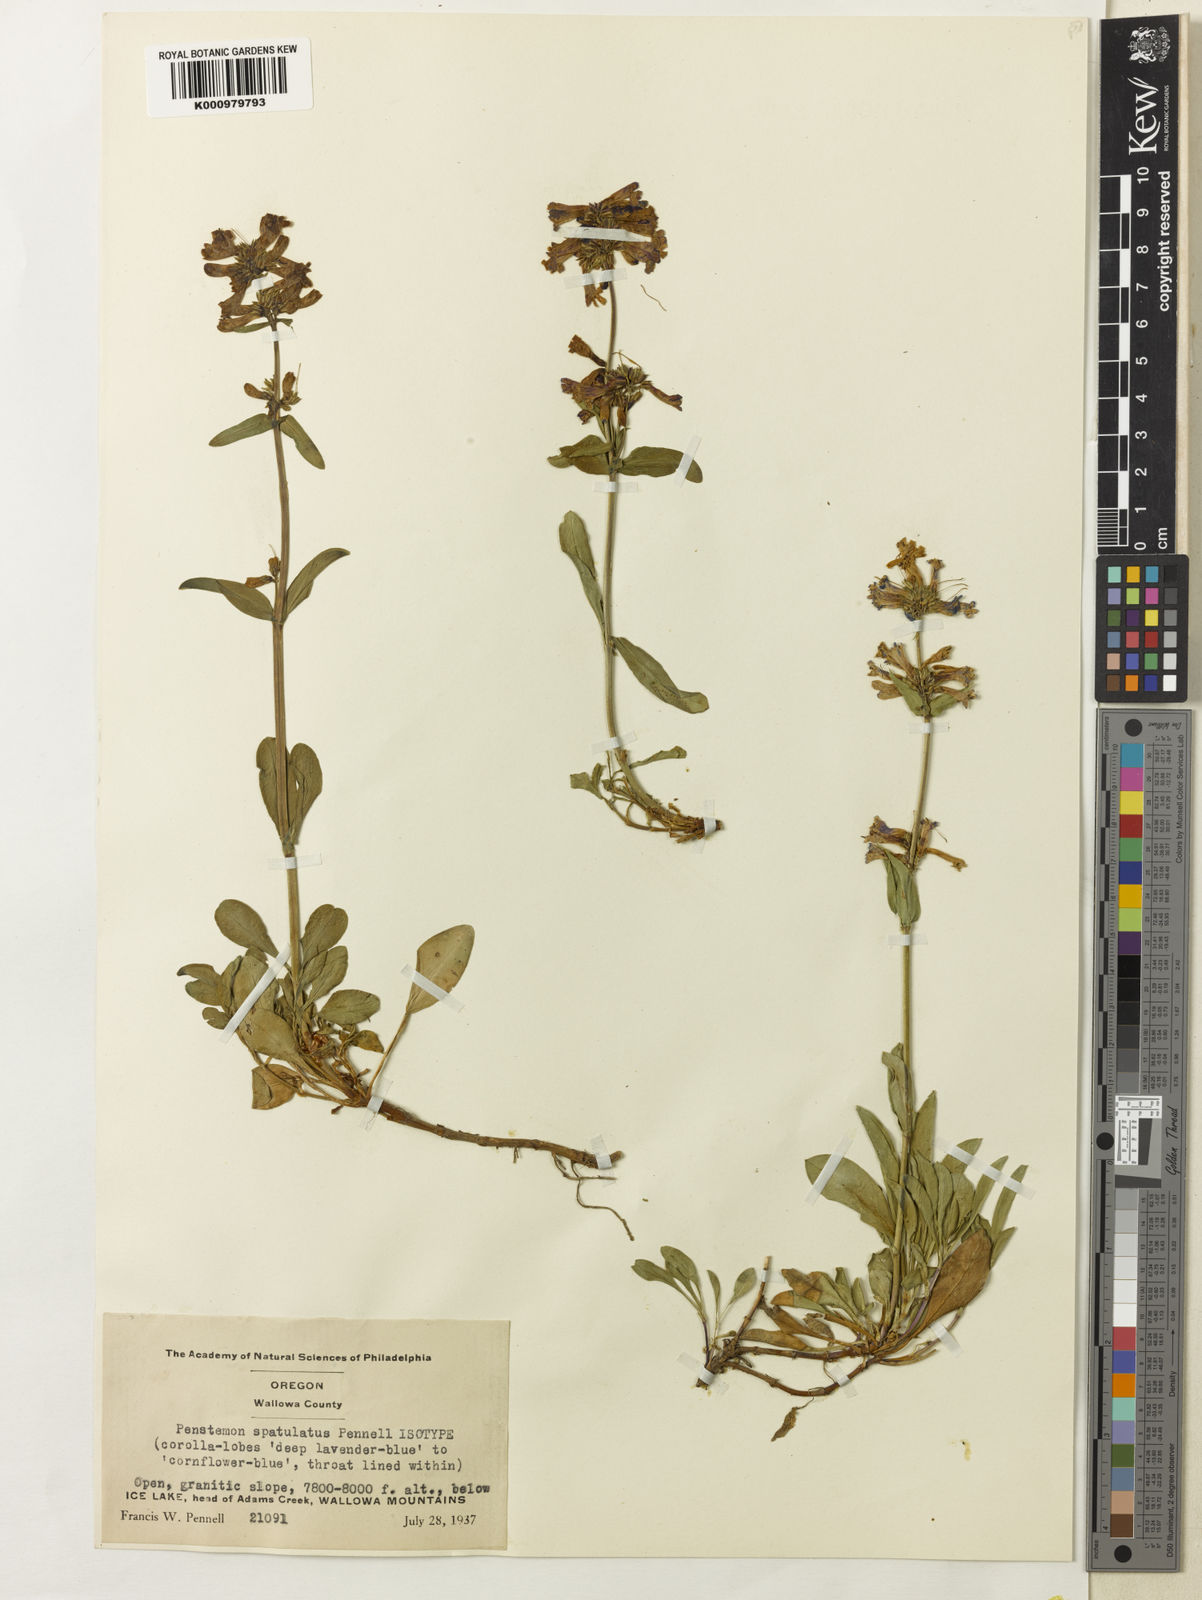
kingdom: Plantae
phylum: Tracheophyta
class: Magnoliopsida
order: Lamiales
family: Plantaginaceae
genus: Penstemon
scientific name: Penstemon
